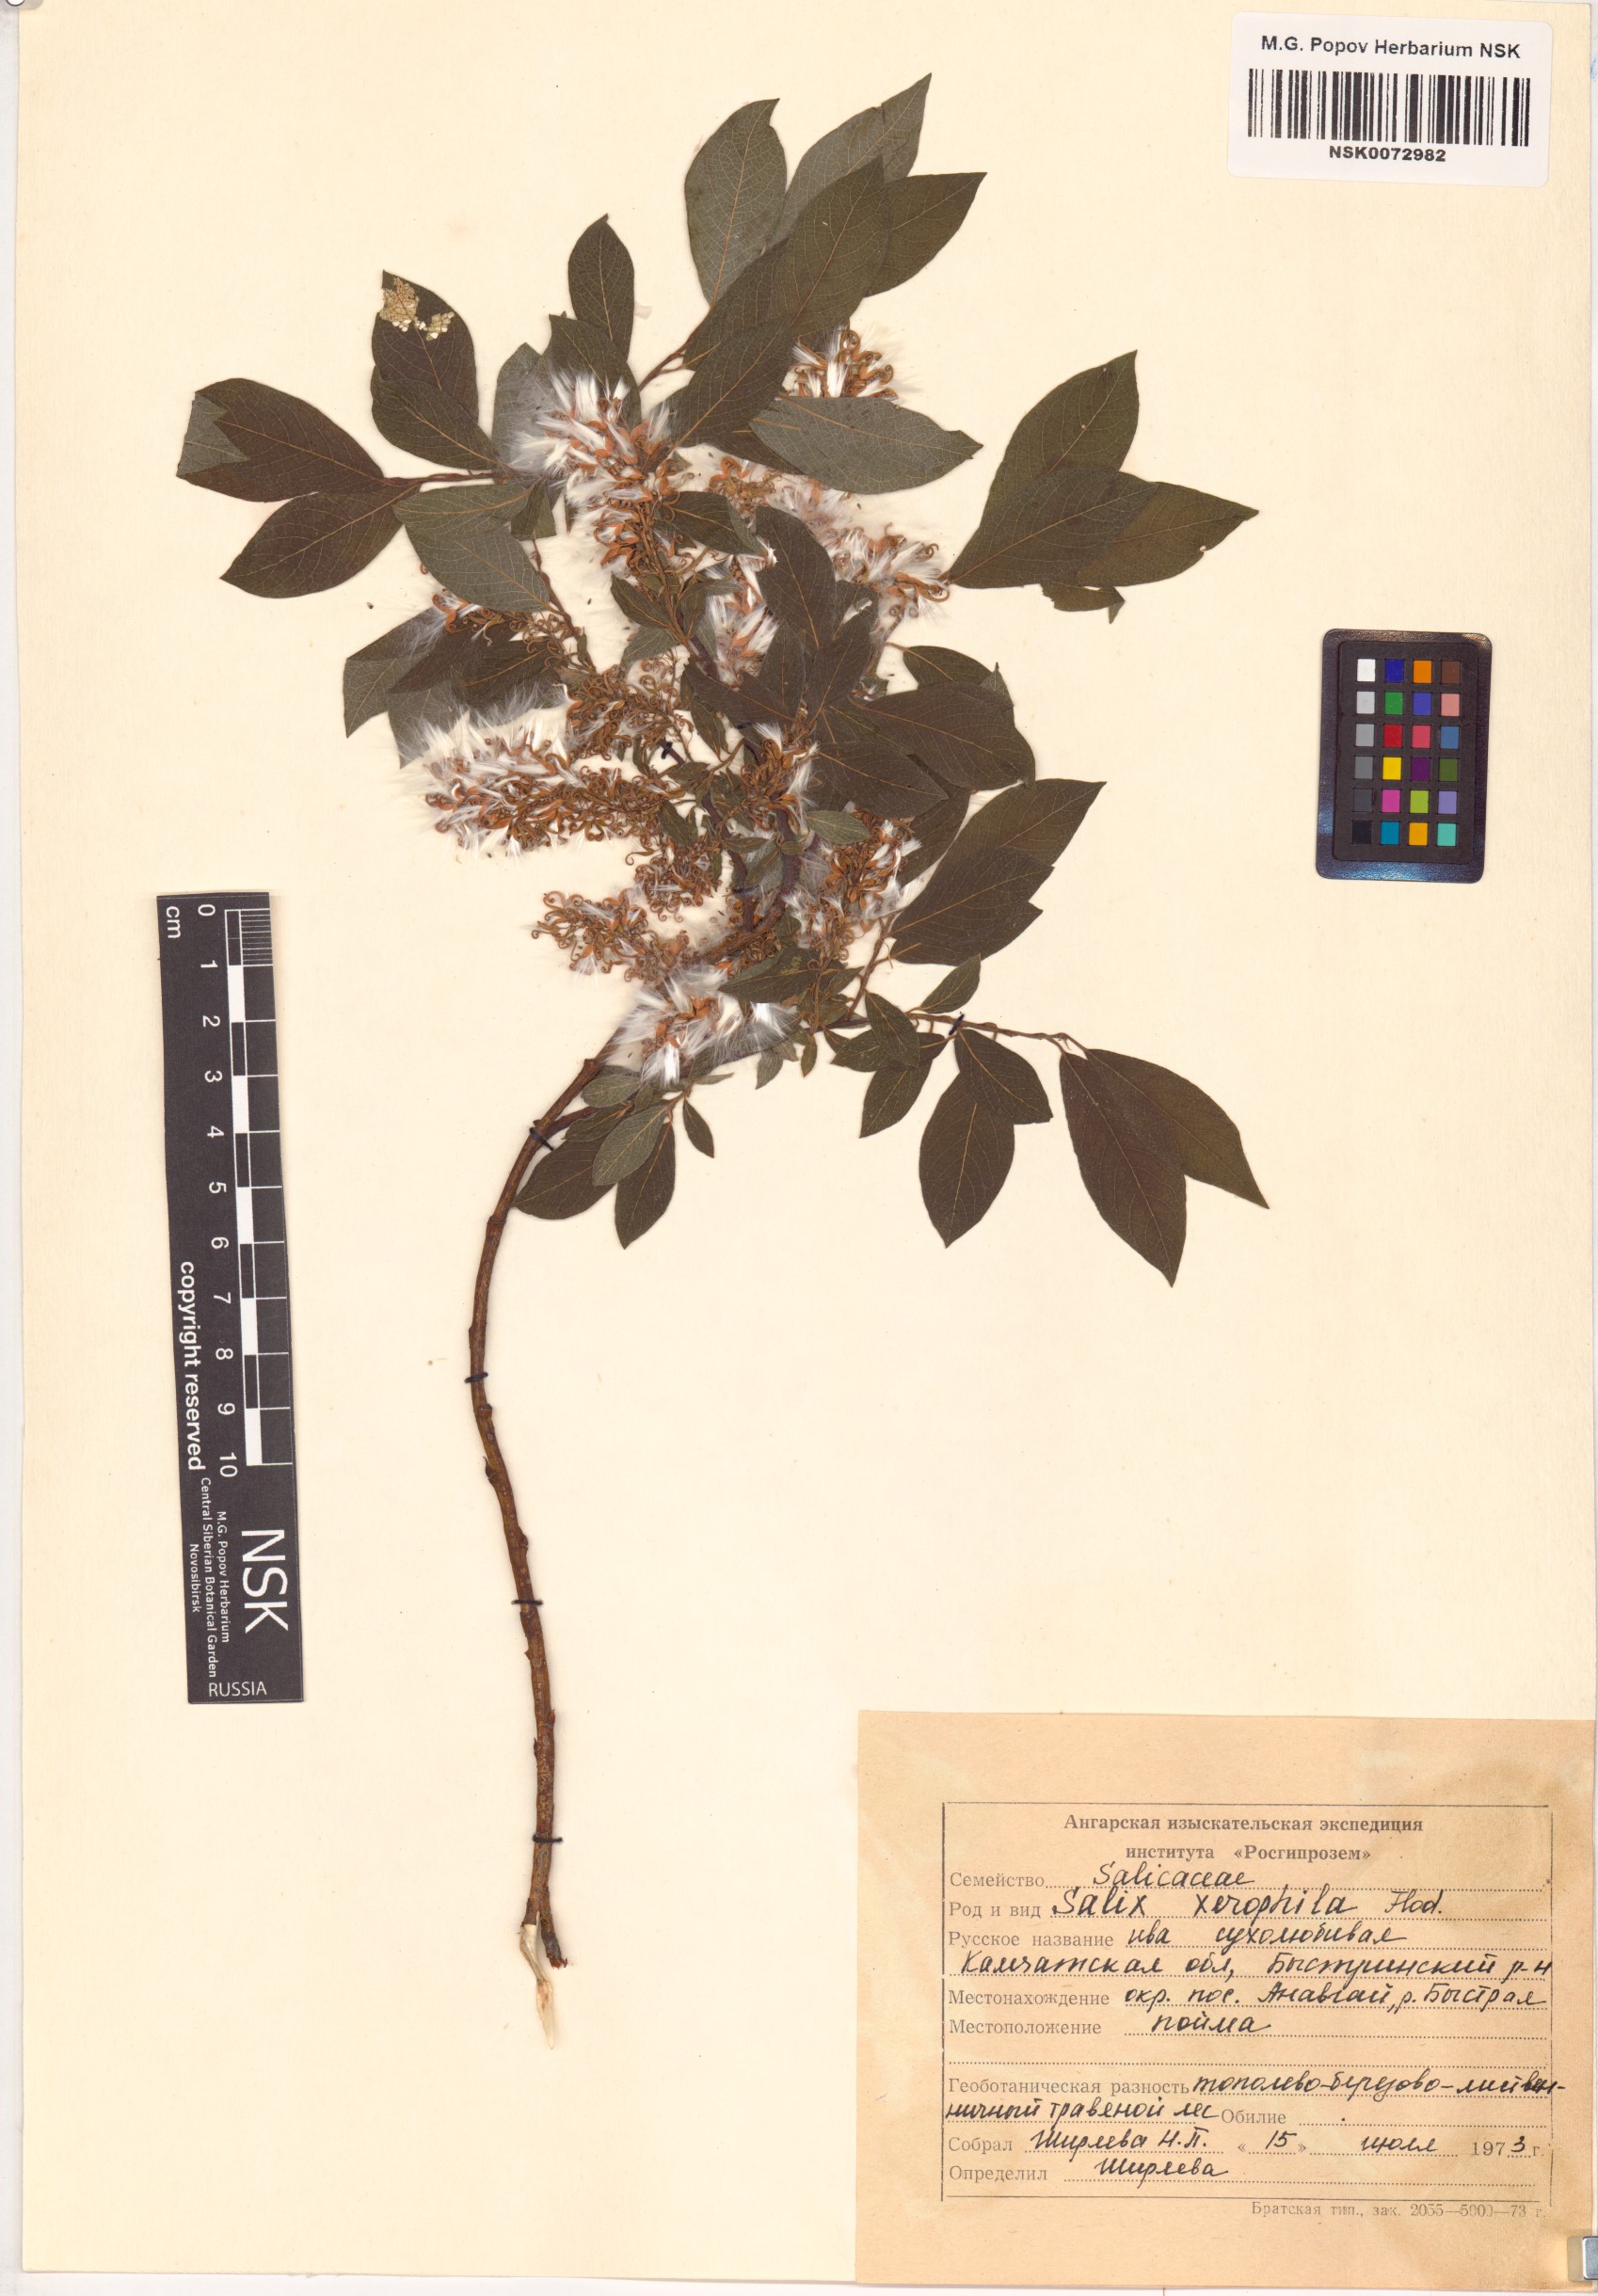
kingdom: Plantae
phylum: Tracheophyta
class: Magnoliopsida
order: Malpighiales
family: Salicaceae
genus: Salix
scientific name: Salix bebbiana
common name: Bebb's willow
